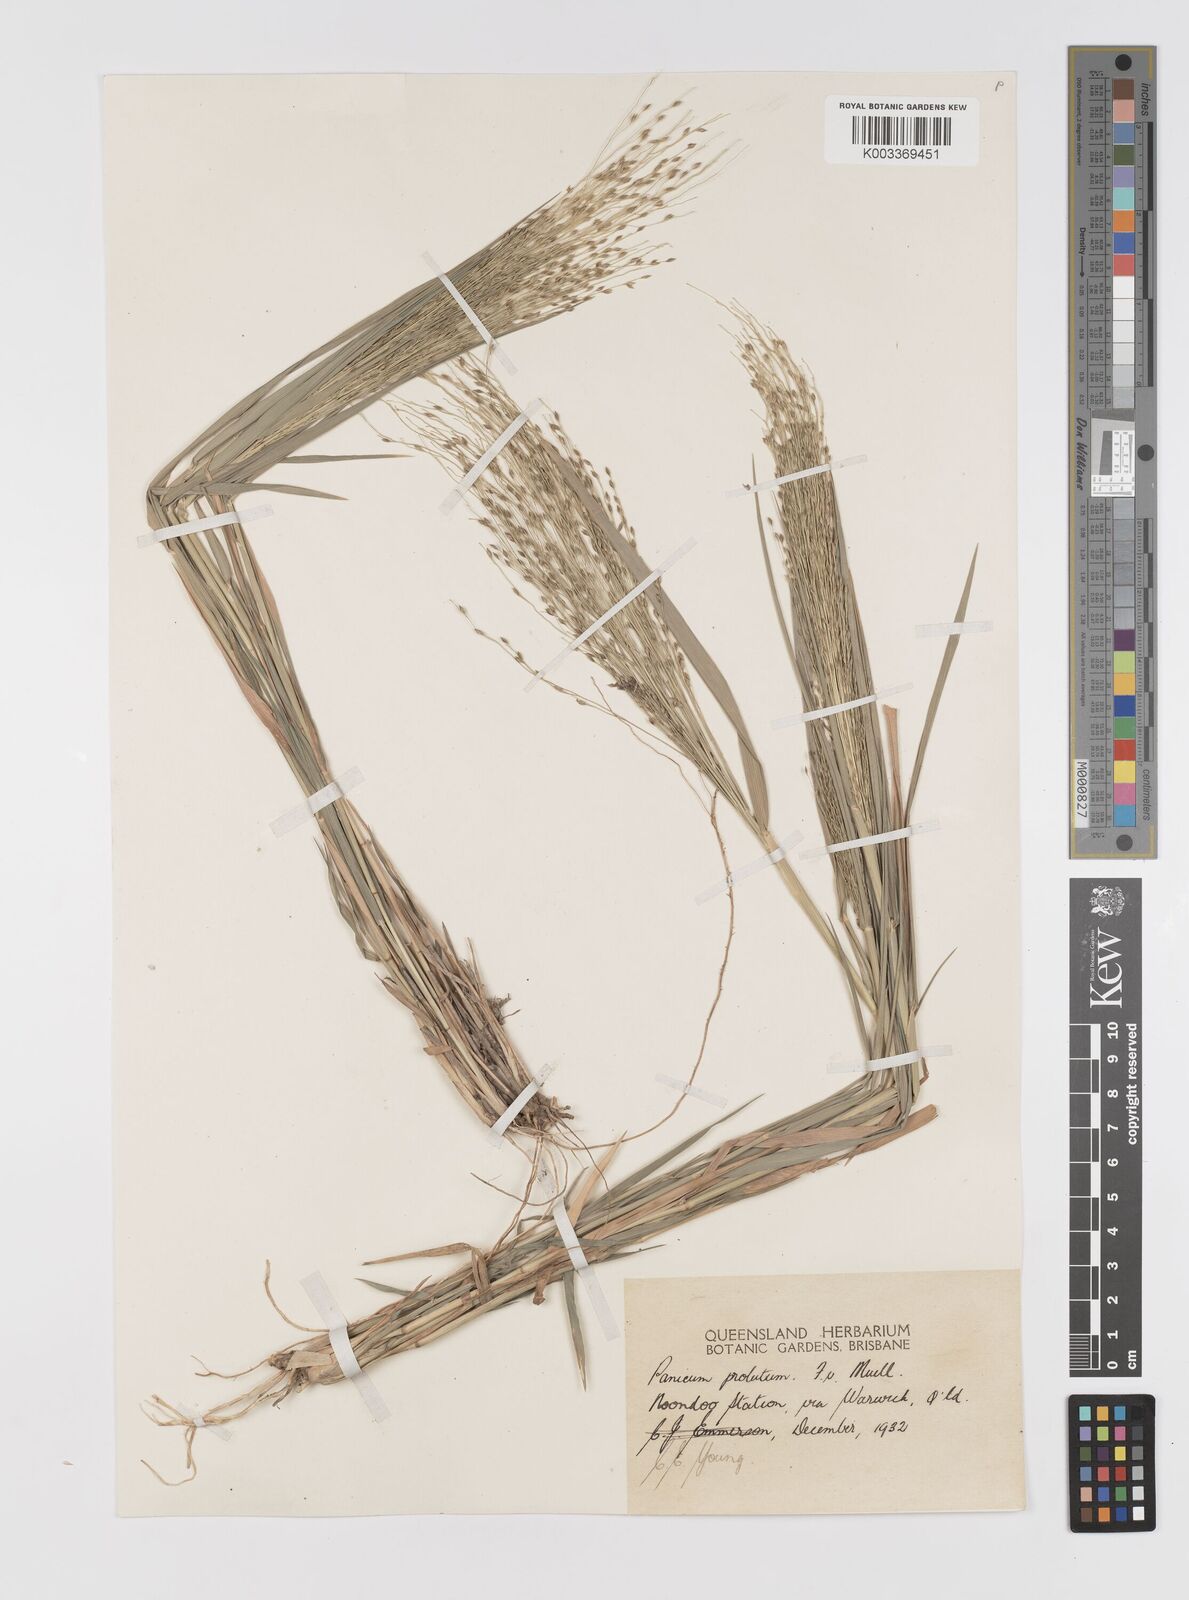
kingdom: Plantae
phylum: Tracheophyta
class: Liliopsida
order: Poales
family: Poaceae
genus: Walwhalleya
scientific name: Walwhalleya proluta
